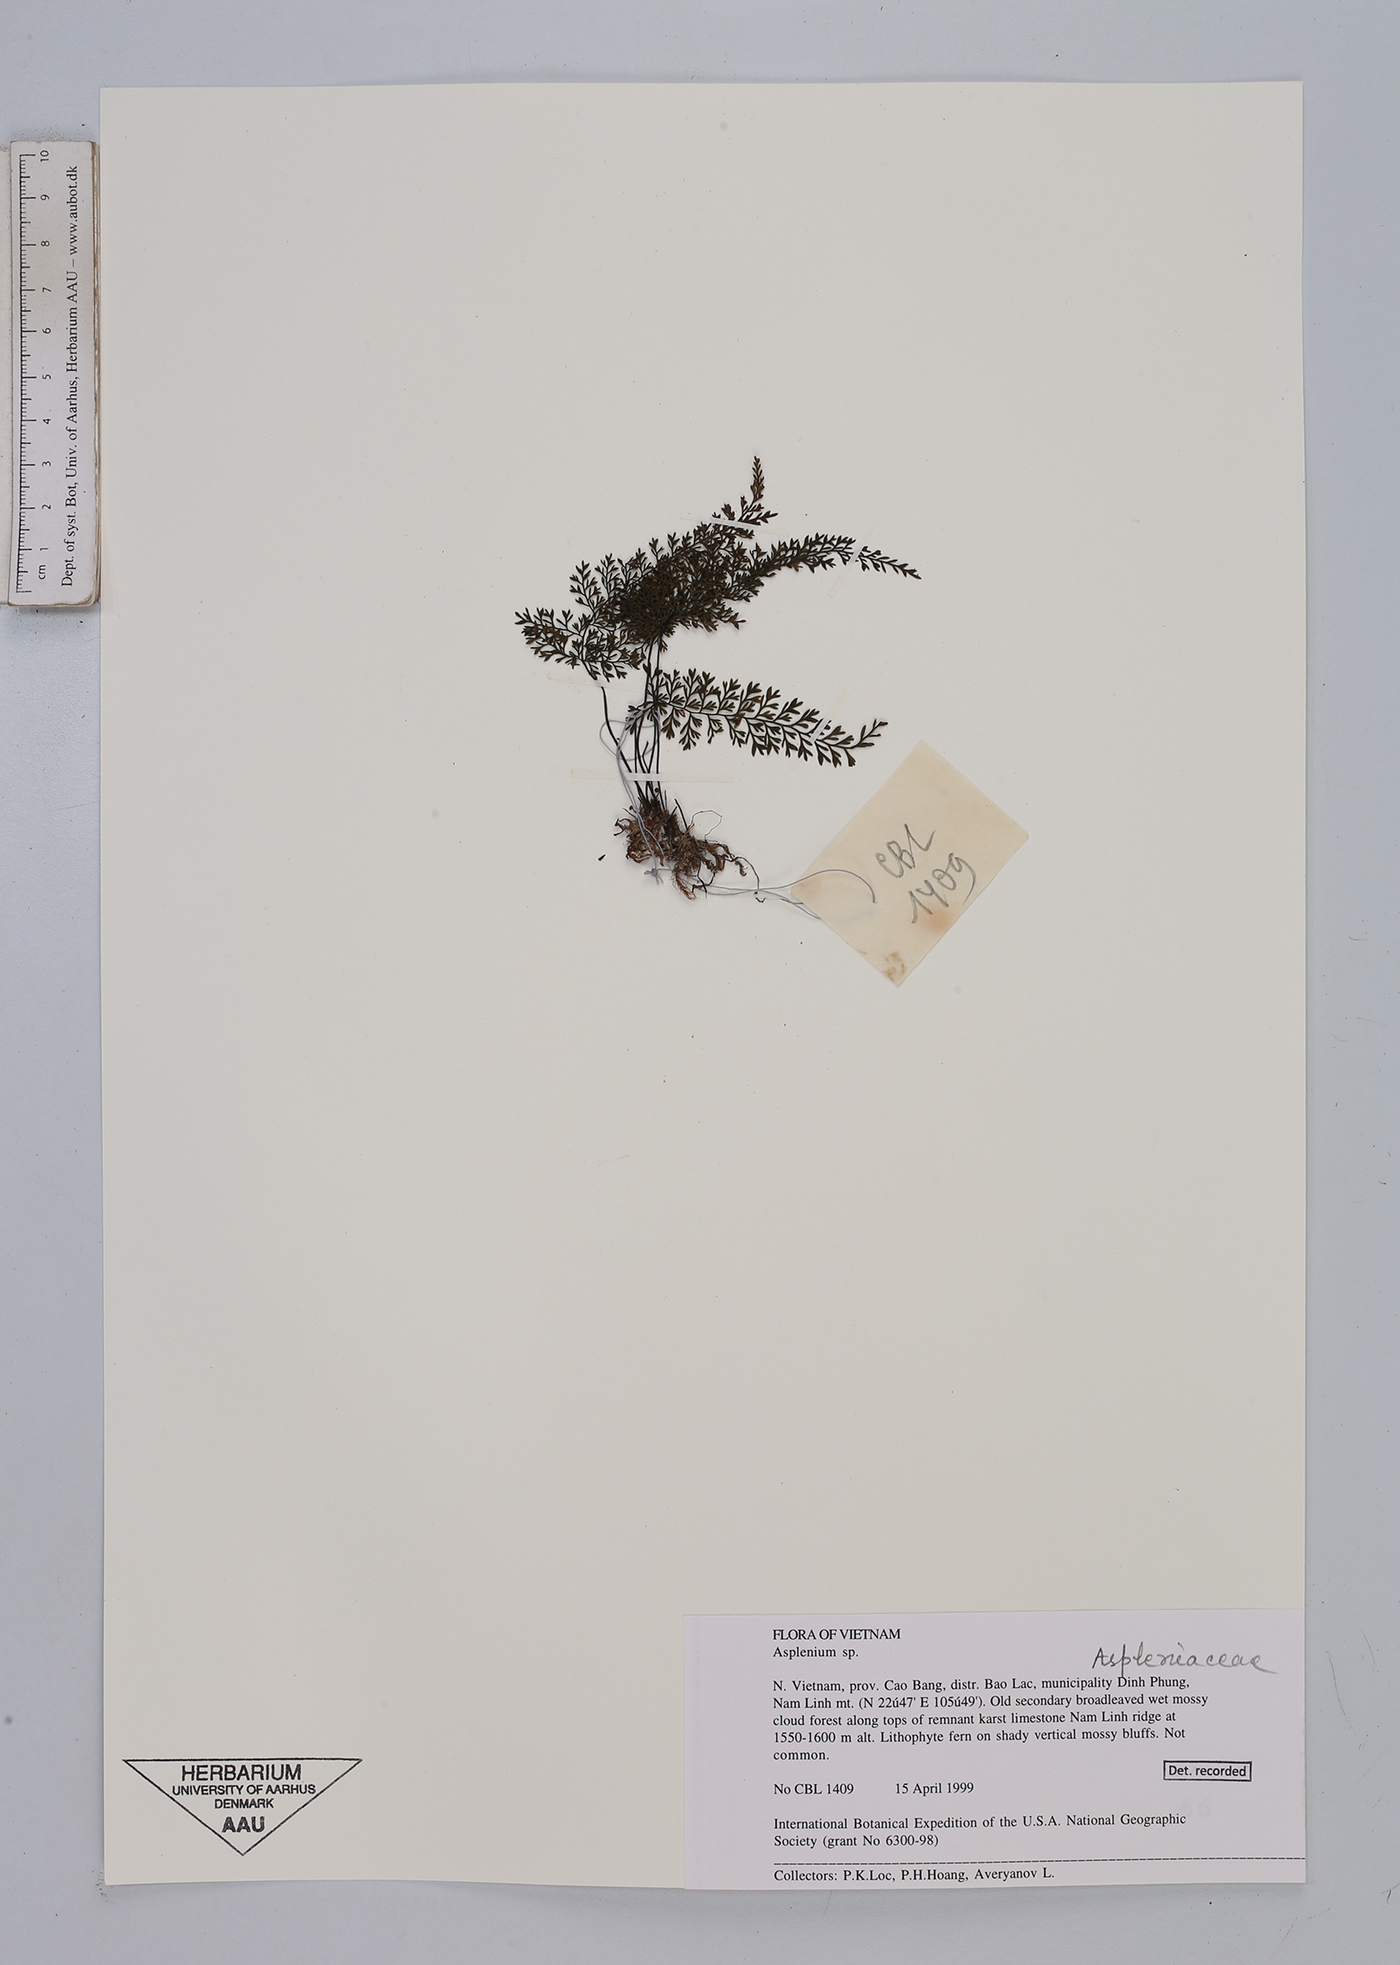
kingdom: Plantae
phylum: Tracheophyta
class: Polypodiopsida
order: Polypodiales
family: Aspleniaceae
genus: Asplenium
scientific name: Asplenium
